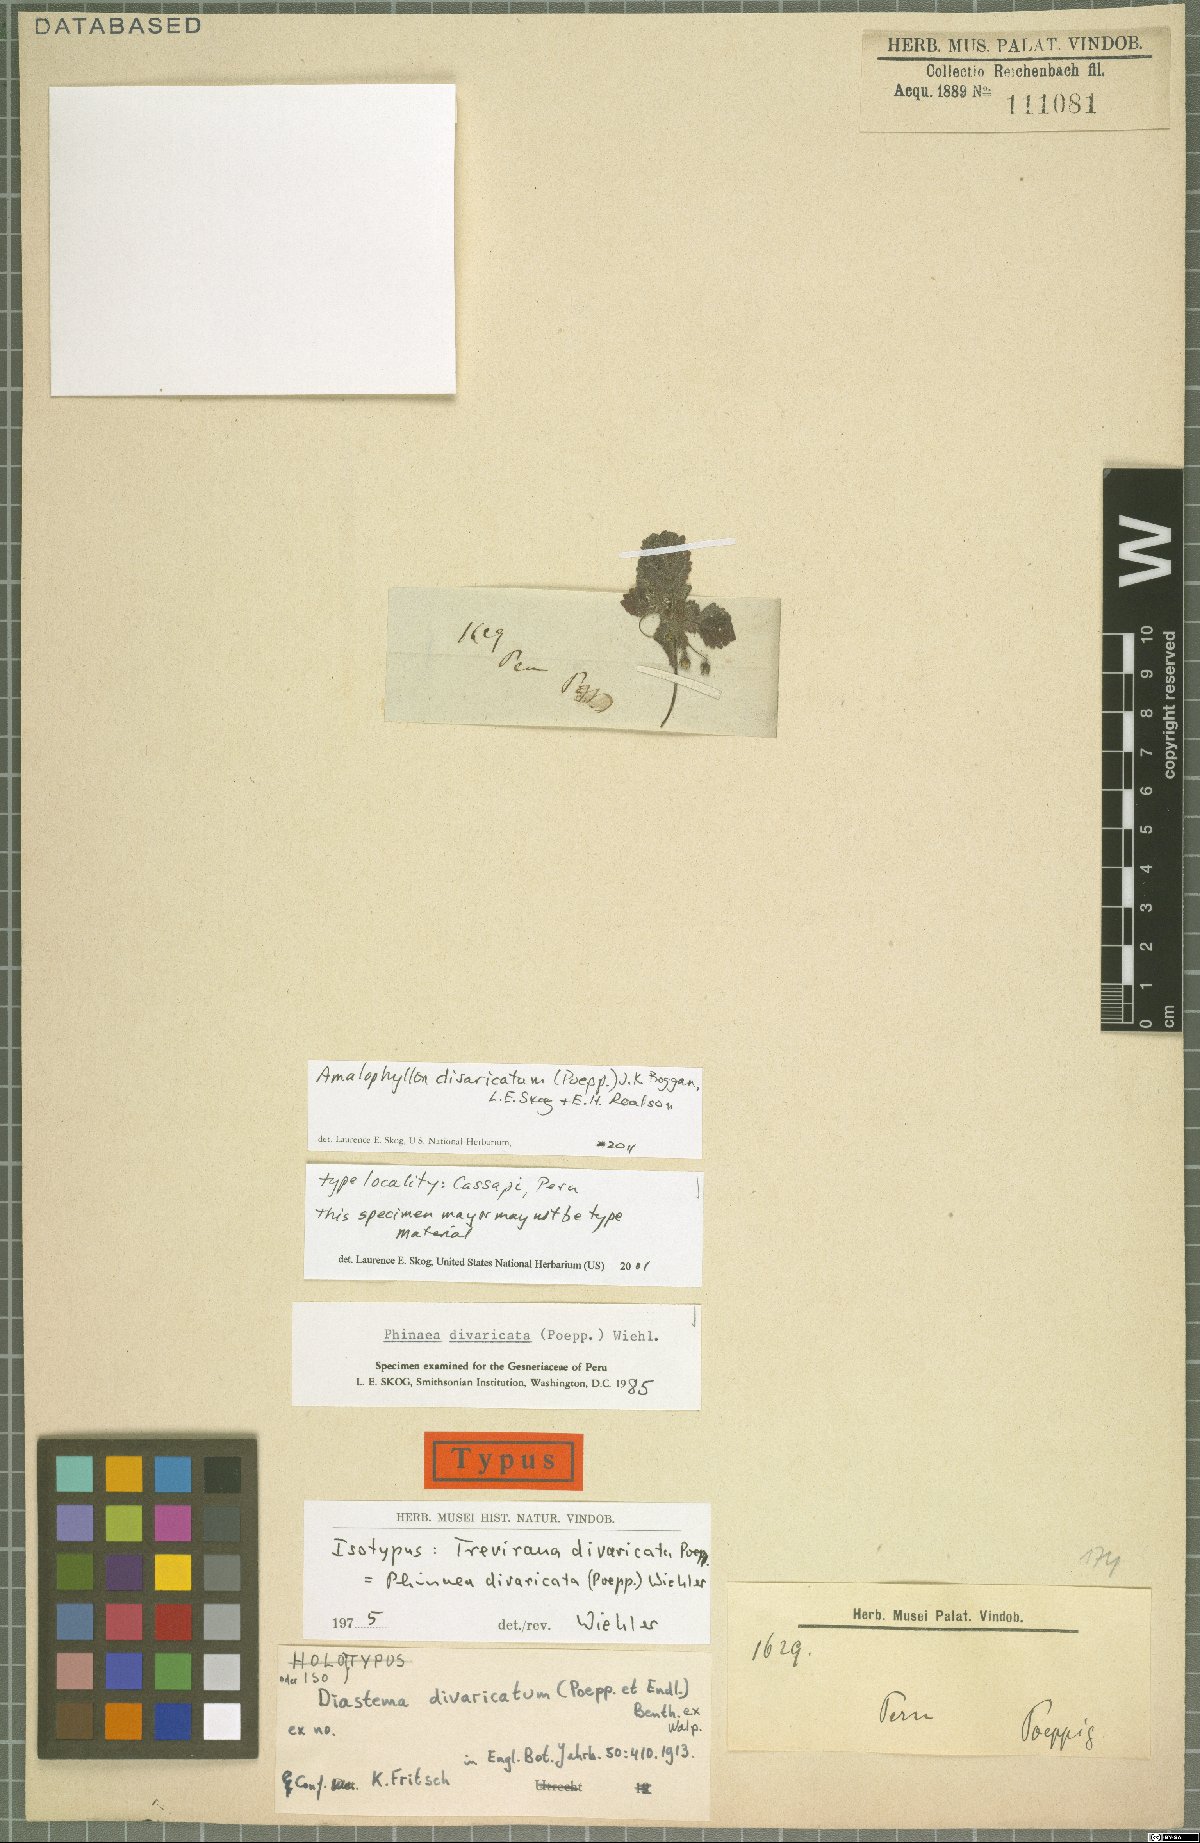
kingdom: Plantae
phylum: Tracheophyta
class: Magnoliopsida
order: Lamiales
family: Gesneriaceae
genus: Amalophyllon
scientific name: Amalophyllon divaricatum
